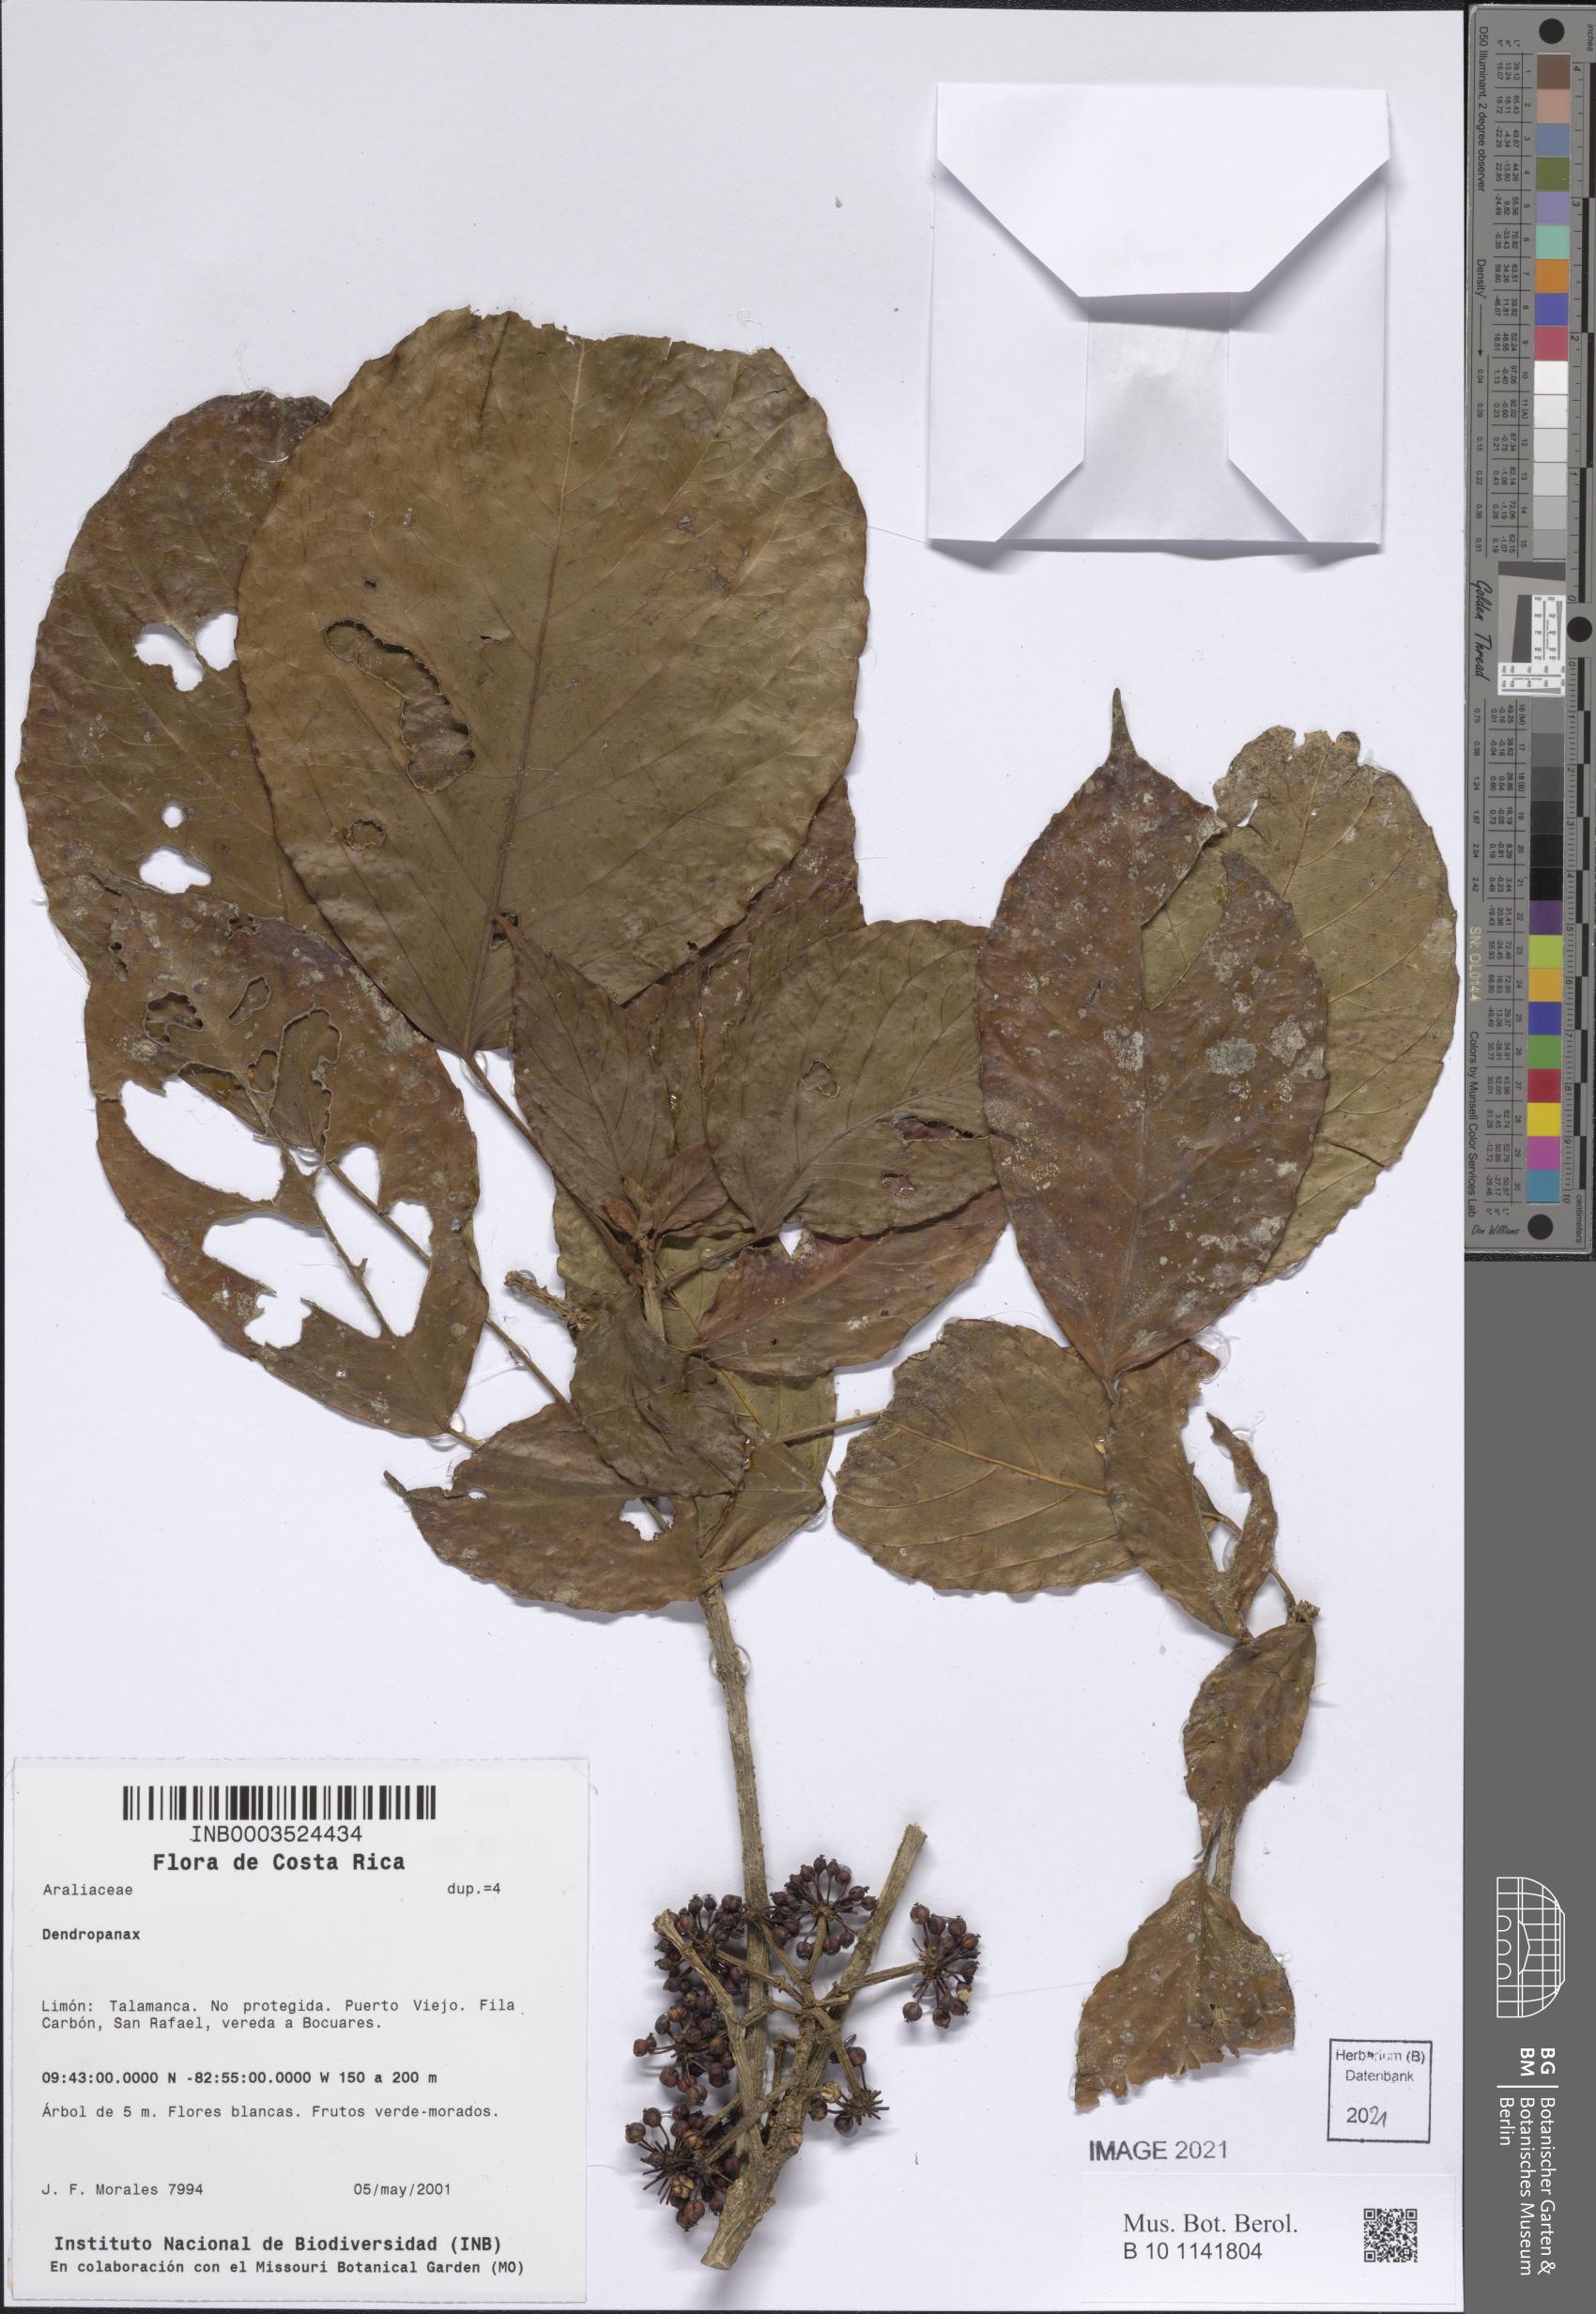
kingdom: Plantae
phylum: Tracheophyta
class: Magnoliopsida
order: Apiales
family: Araliaceae
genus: Dendropanax
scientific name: Dendropanax
